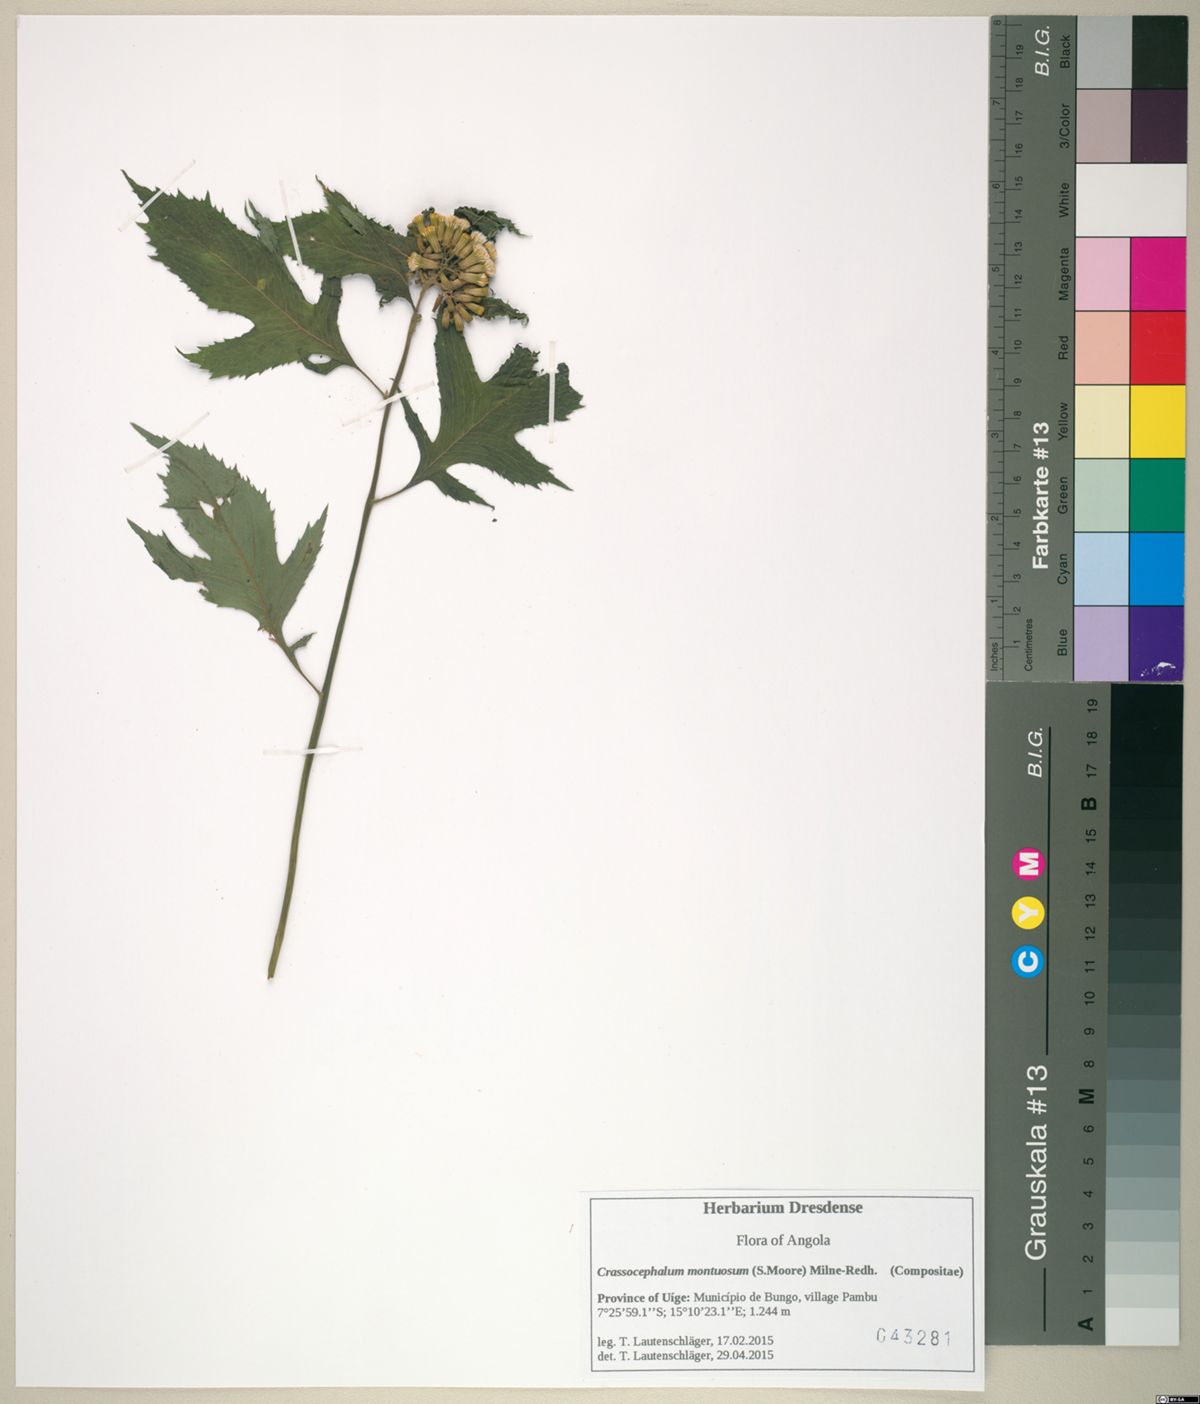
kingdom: Plantae
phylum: Tracheophyta
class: Magnoliopsida
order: Asterales
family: Asteraceae
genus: Crassocephalum
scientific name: Crassocephalum montuosum
